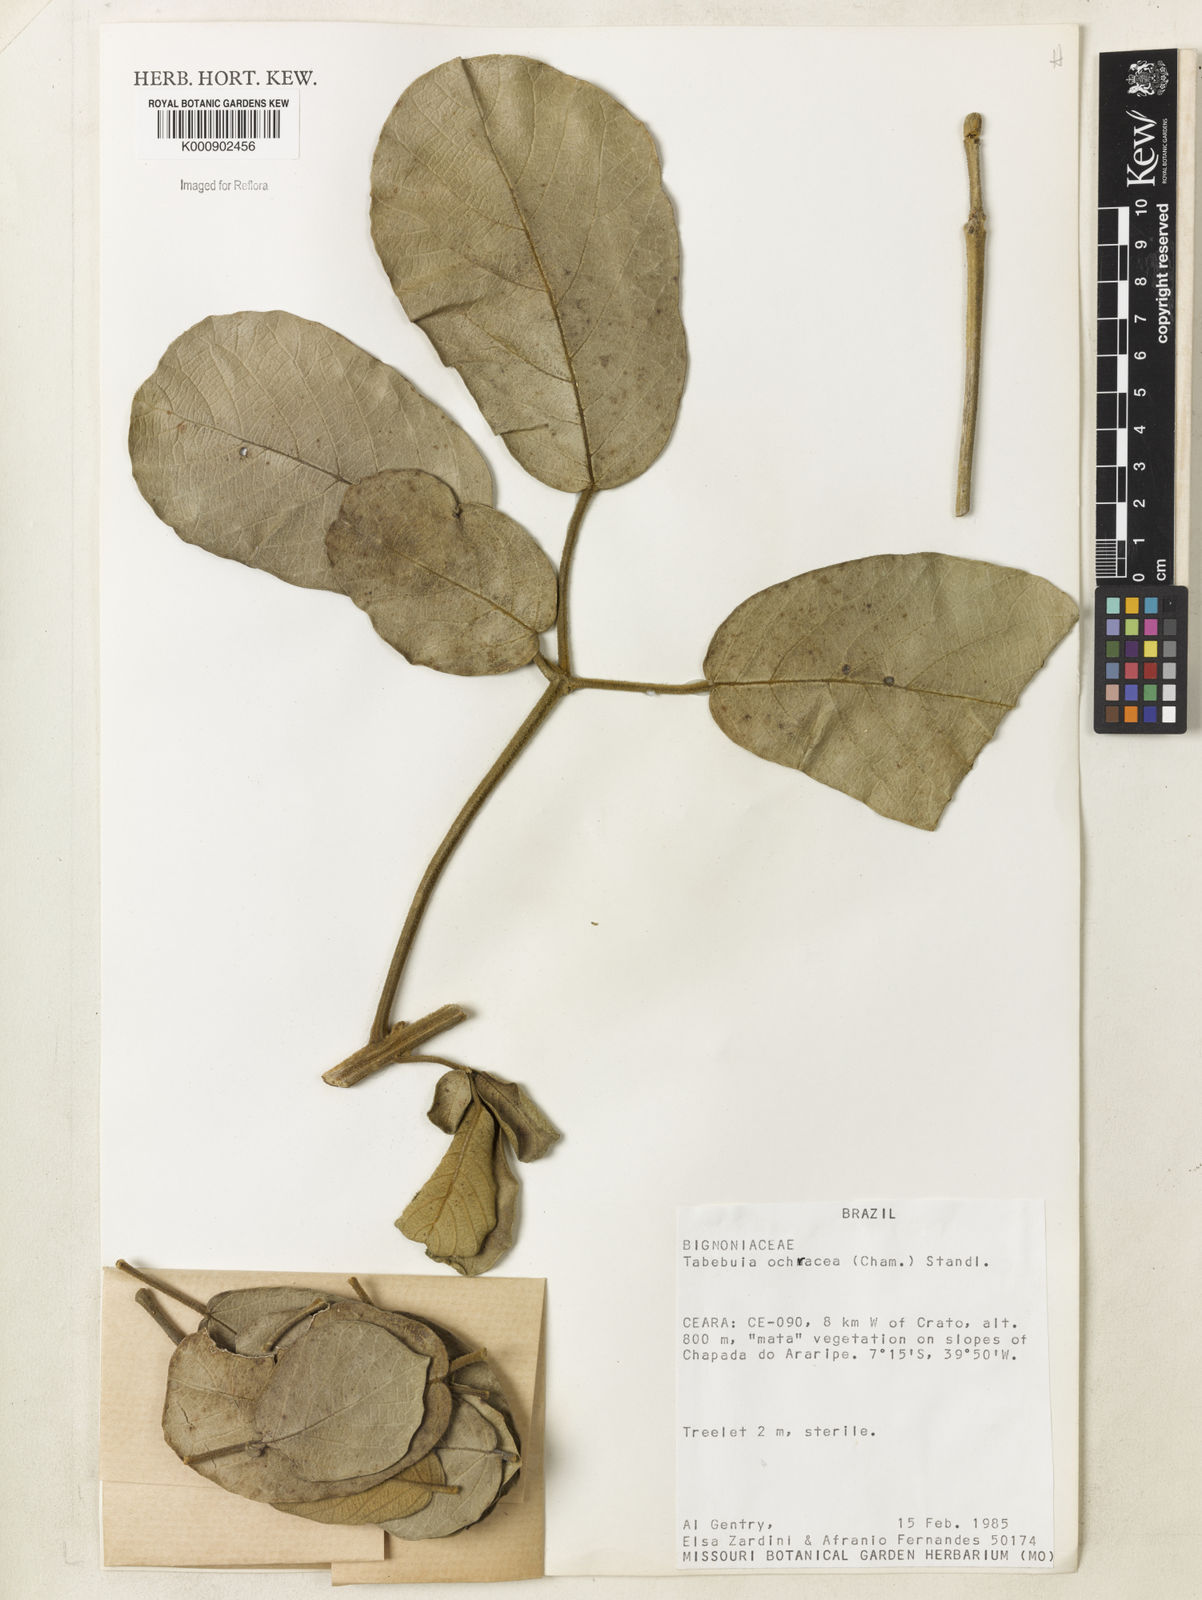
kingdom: Plantae
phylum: Tracheophyta
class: Magnoliopsida
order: Lamiales
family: Bignoniaceae
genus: Handroanthus
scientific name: Handroanthus ochraceus
